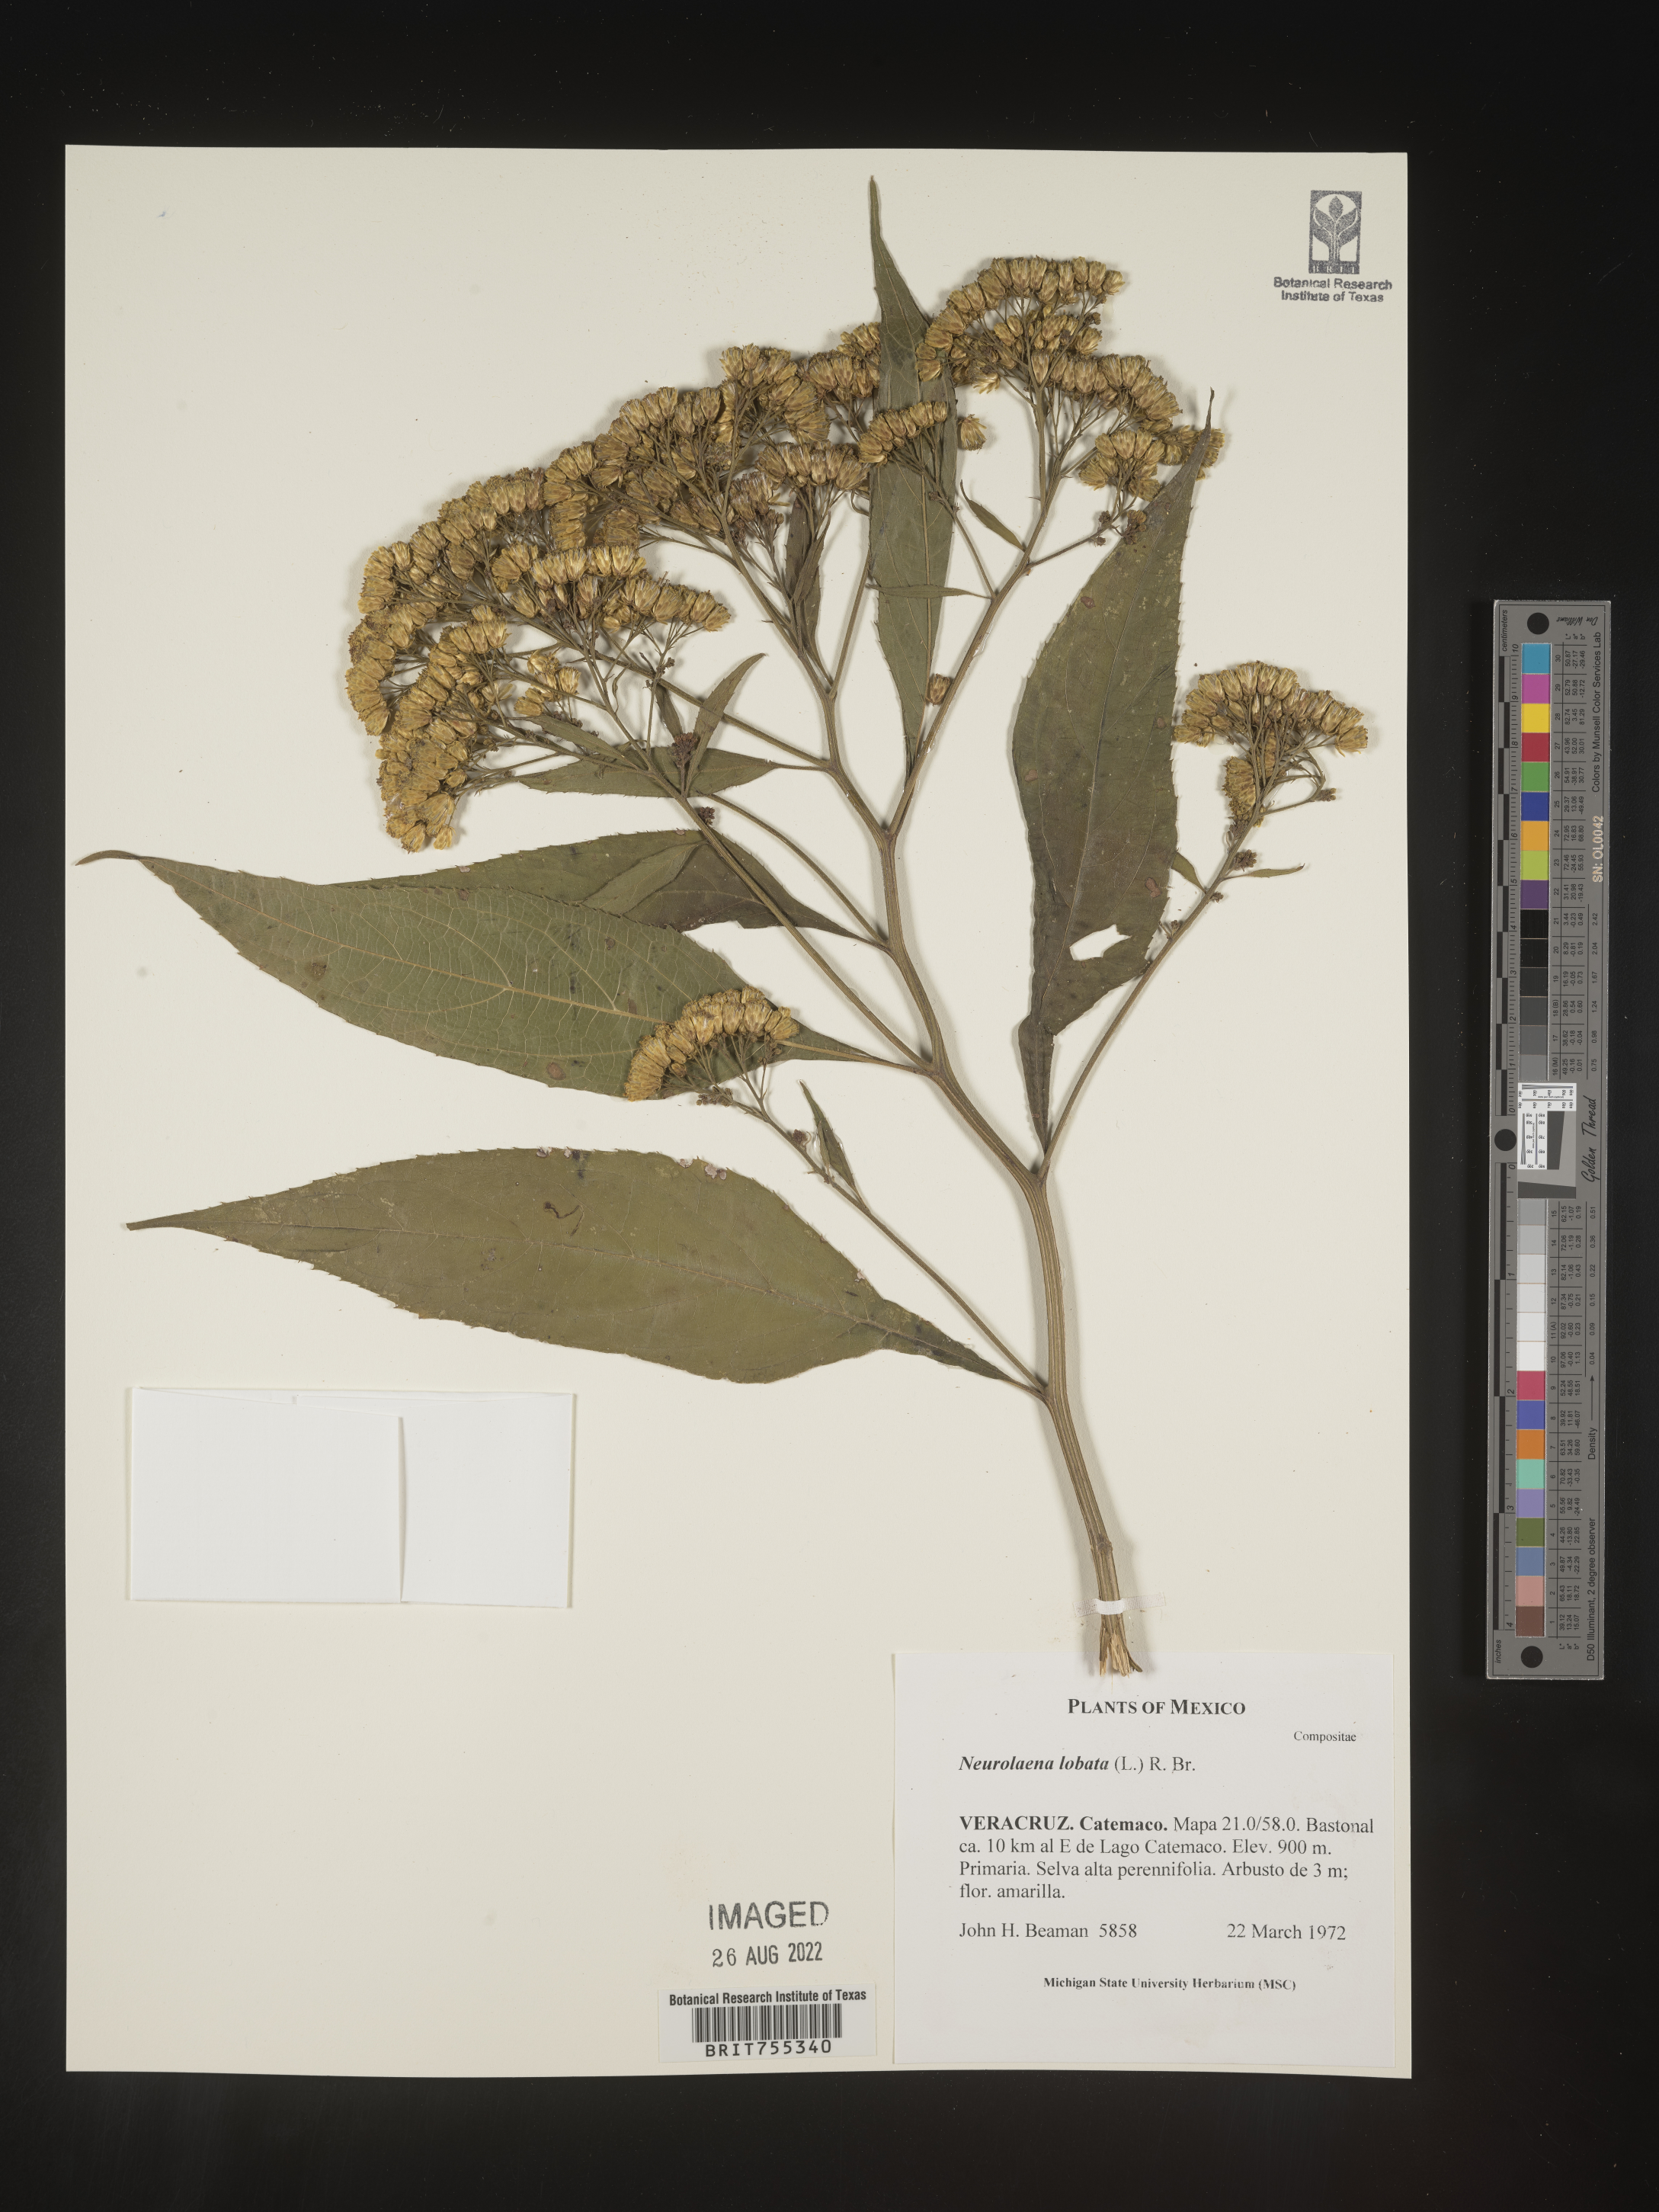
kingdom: Plantae
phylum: Tracheophyta
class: Magnoliopsida
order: Asterales
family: Asteraceae
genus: Neurolaena
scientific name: Neurolaena
